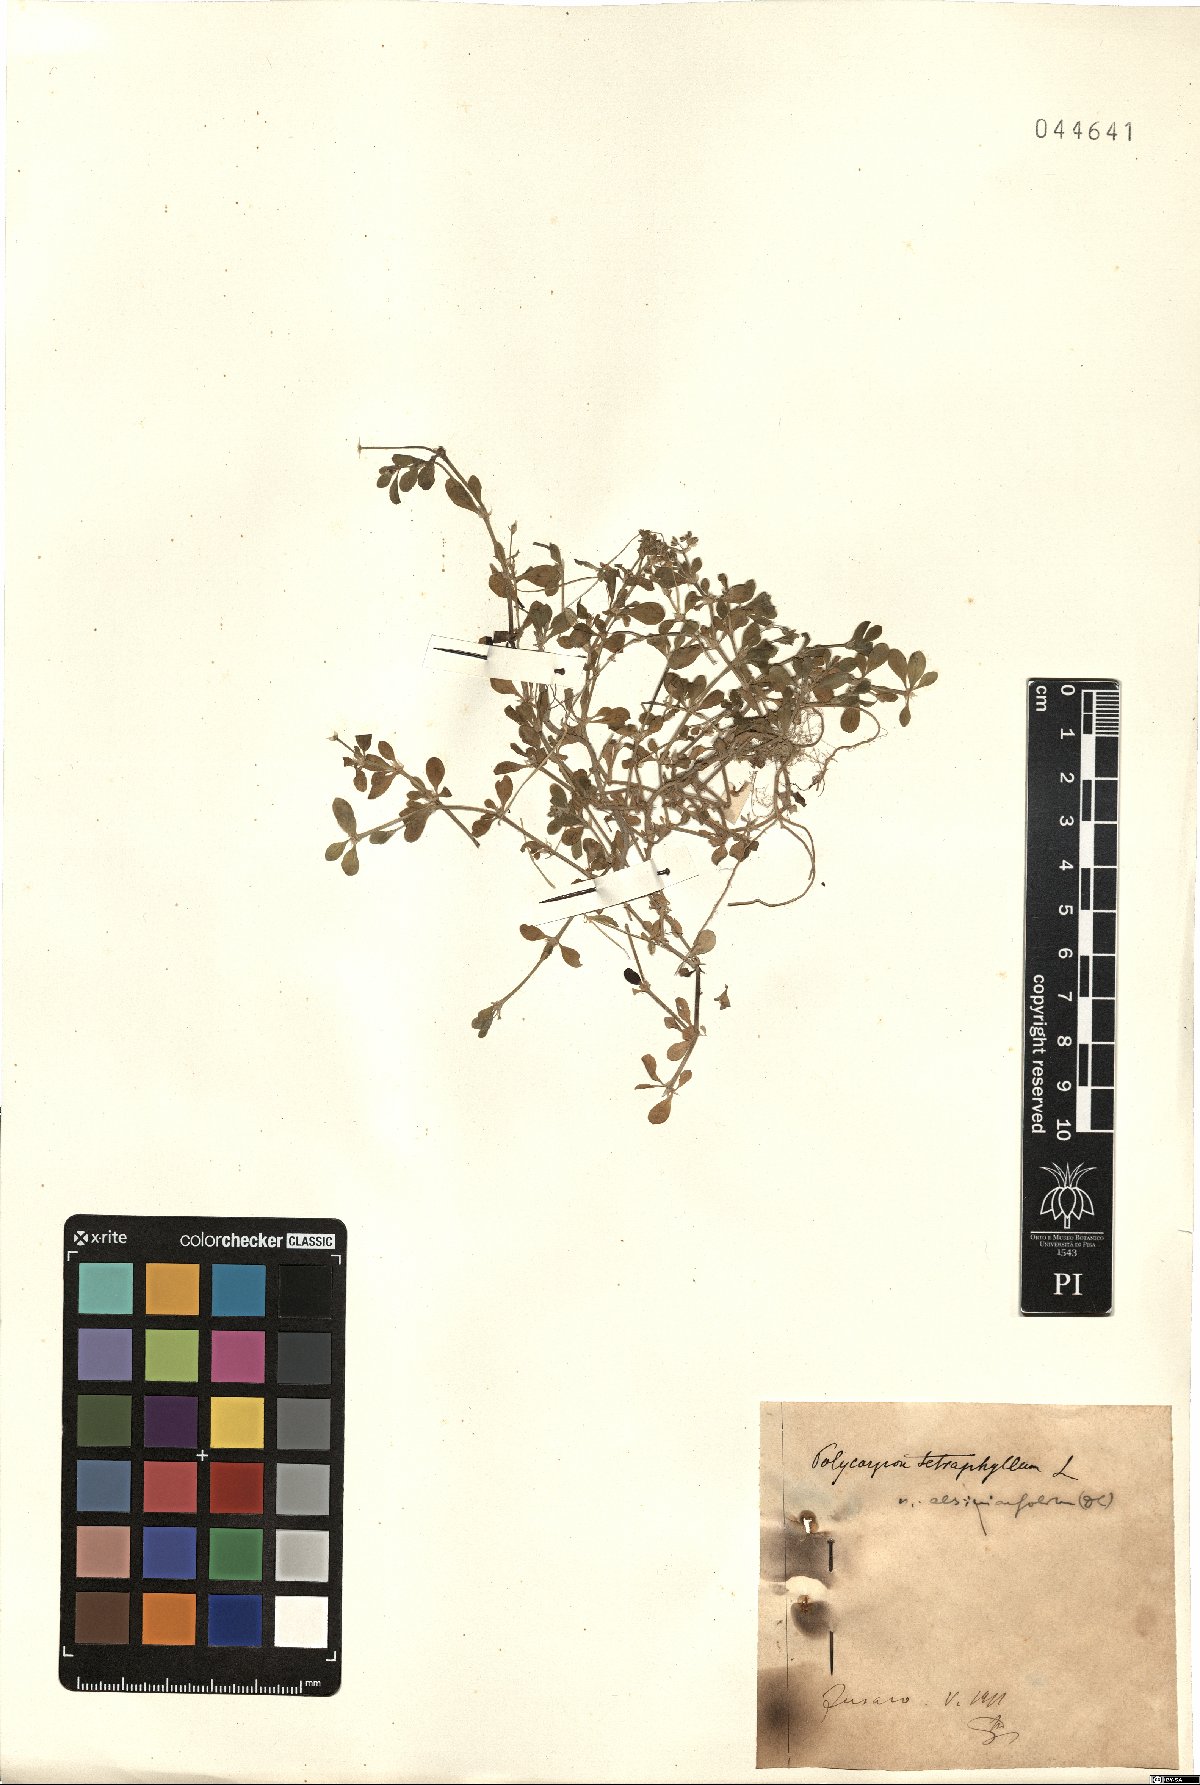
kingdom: Plantae
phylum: Tracheophyta
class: Magnoliopsida
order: Caryophyllales
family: Caryophyllaceae
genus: Polycarpon
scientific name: Polycarpon alsinifolium
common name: Fourleaf manyseed
